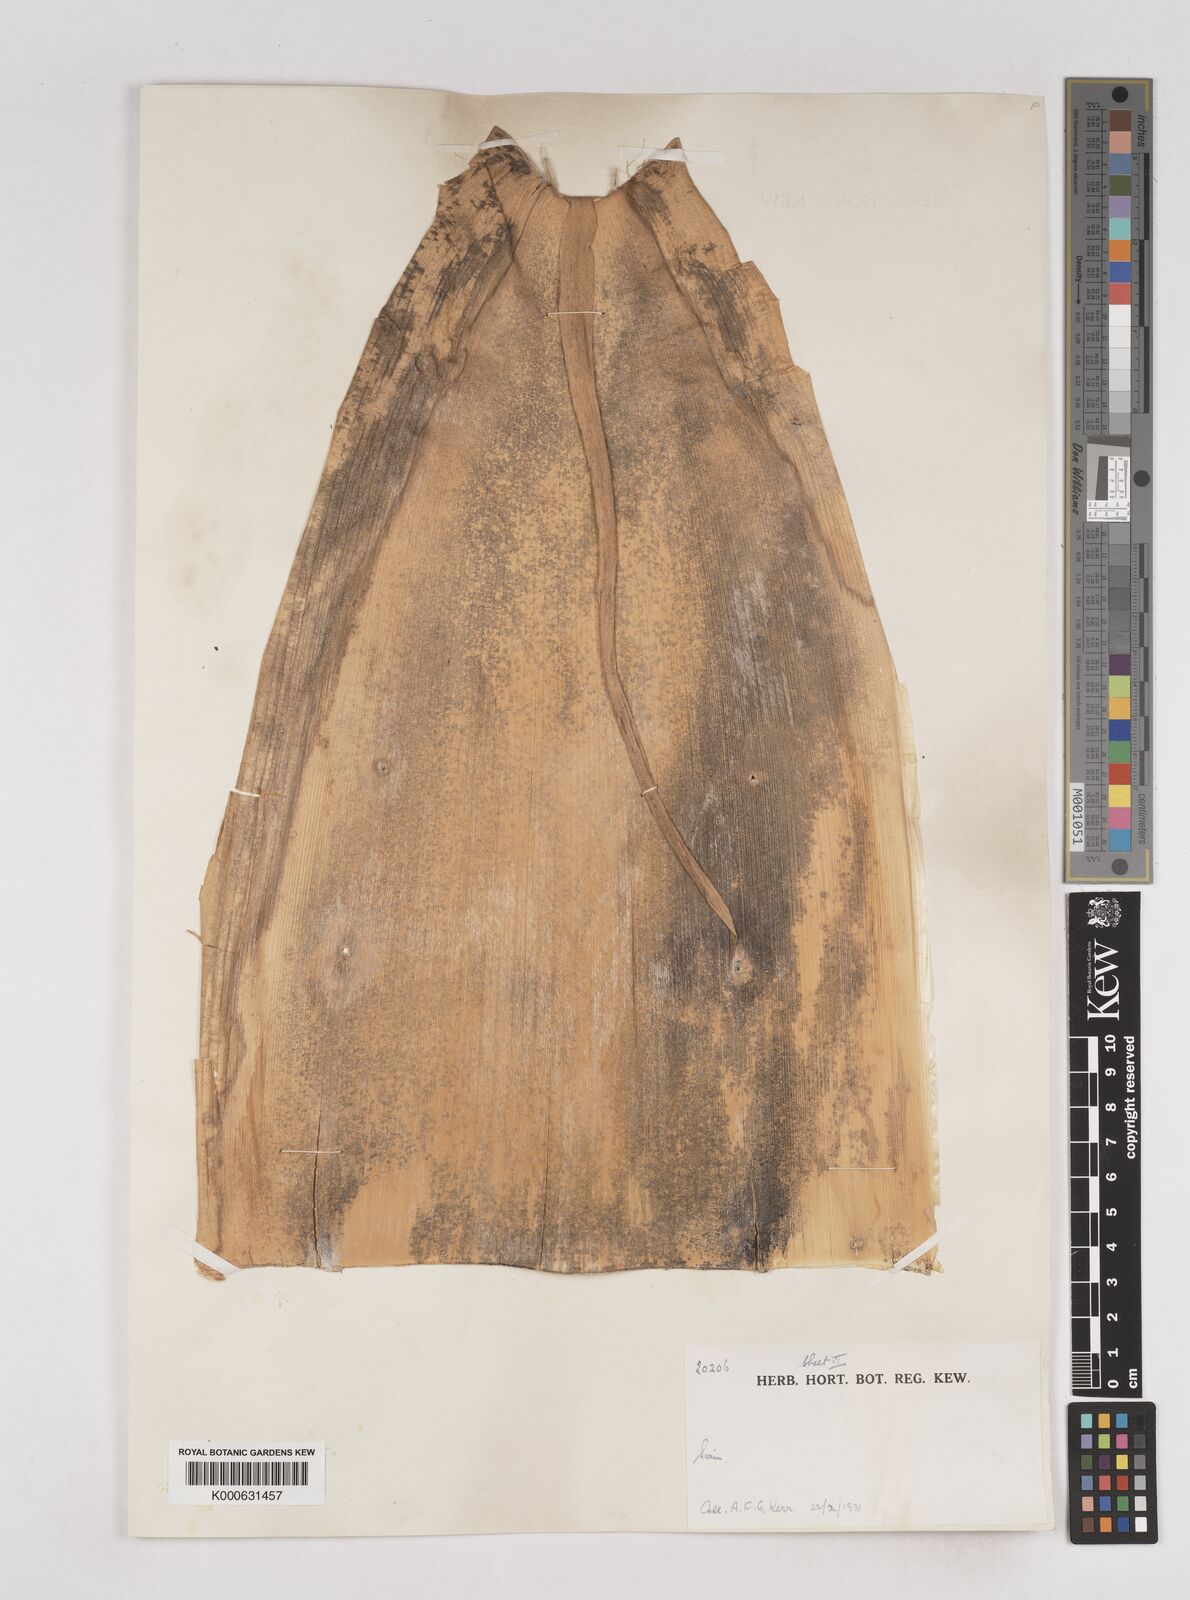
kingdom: Plantae
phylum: Tracheophyta
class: Liliopsida
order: Poales
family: Poaceae
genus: Schizostachyum
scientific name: Schizostachyum
